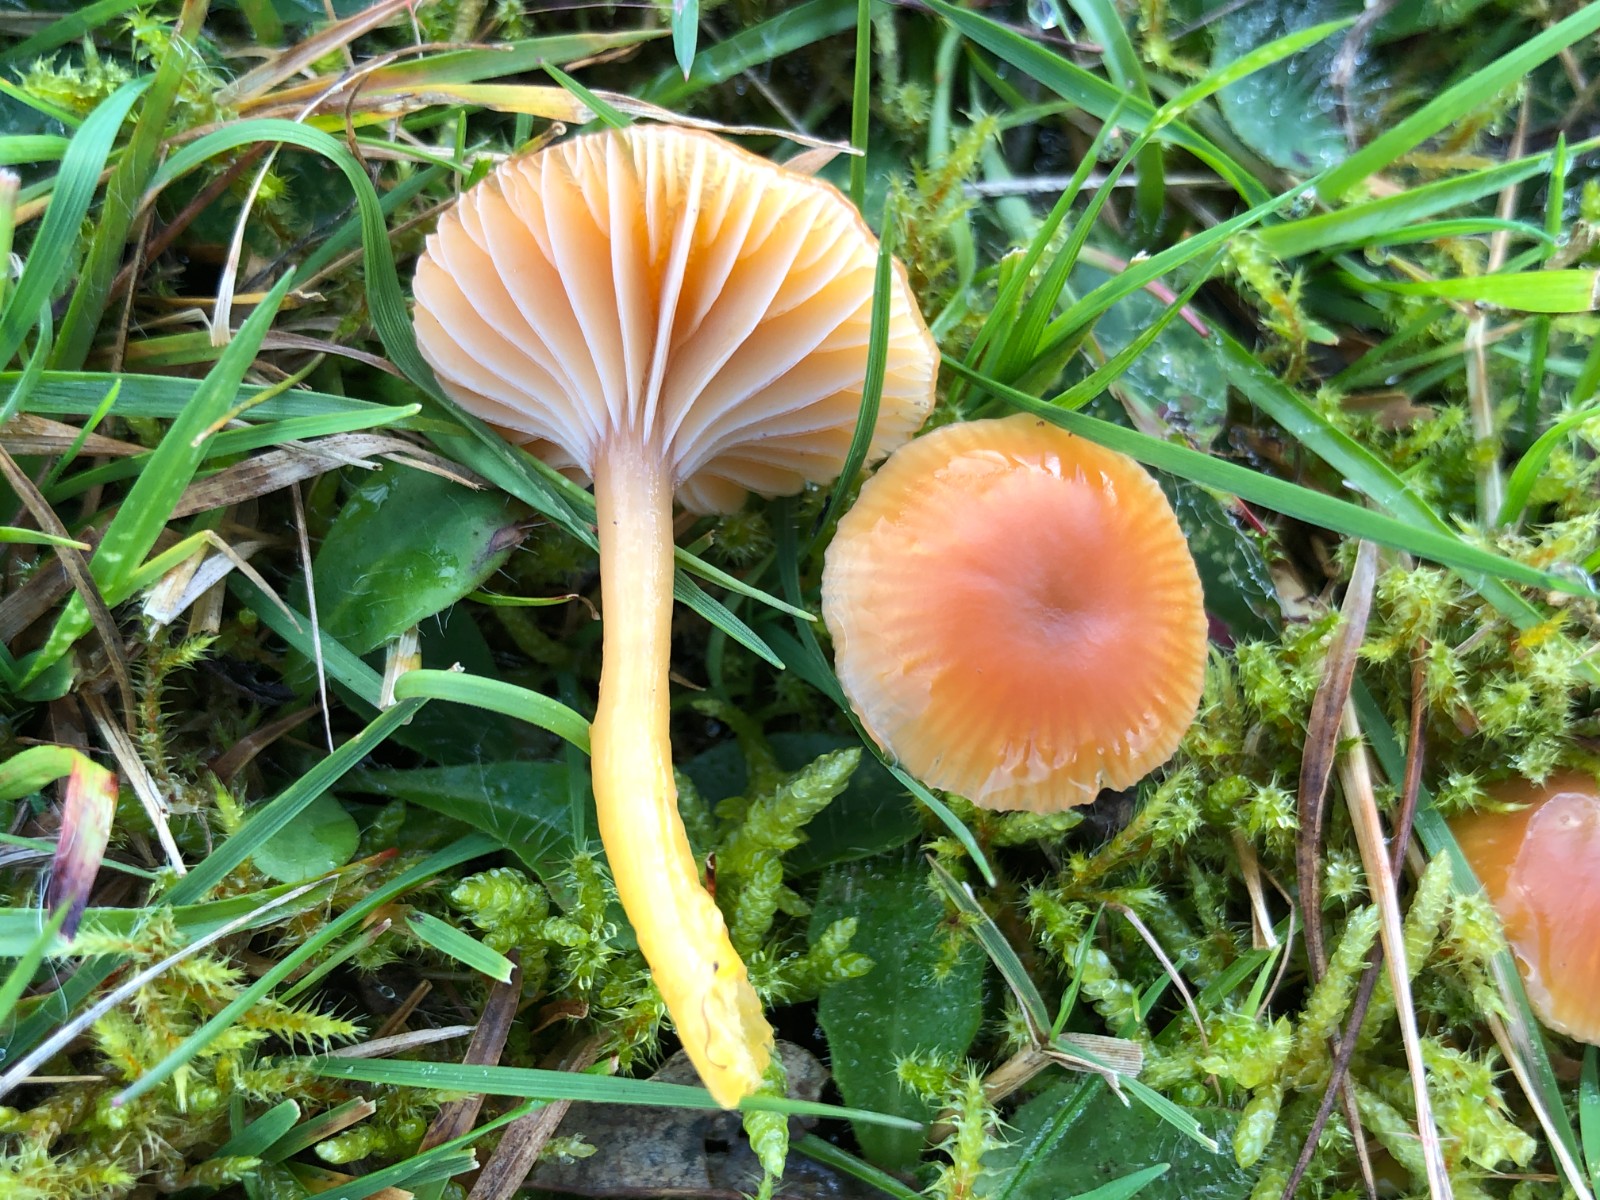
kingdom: Fungi
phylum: Basidiomycota
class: Agaricomycetes
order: Agaricales
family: Hygrophoraceae
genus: Gliophorus
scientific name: Gliophorus laetus
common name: brusk-vokshat
